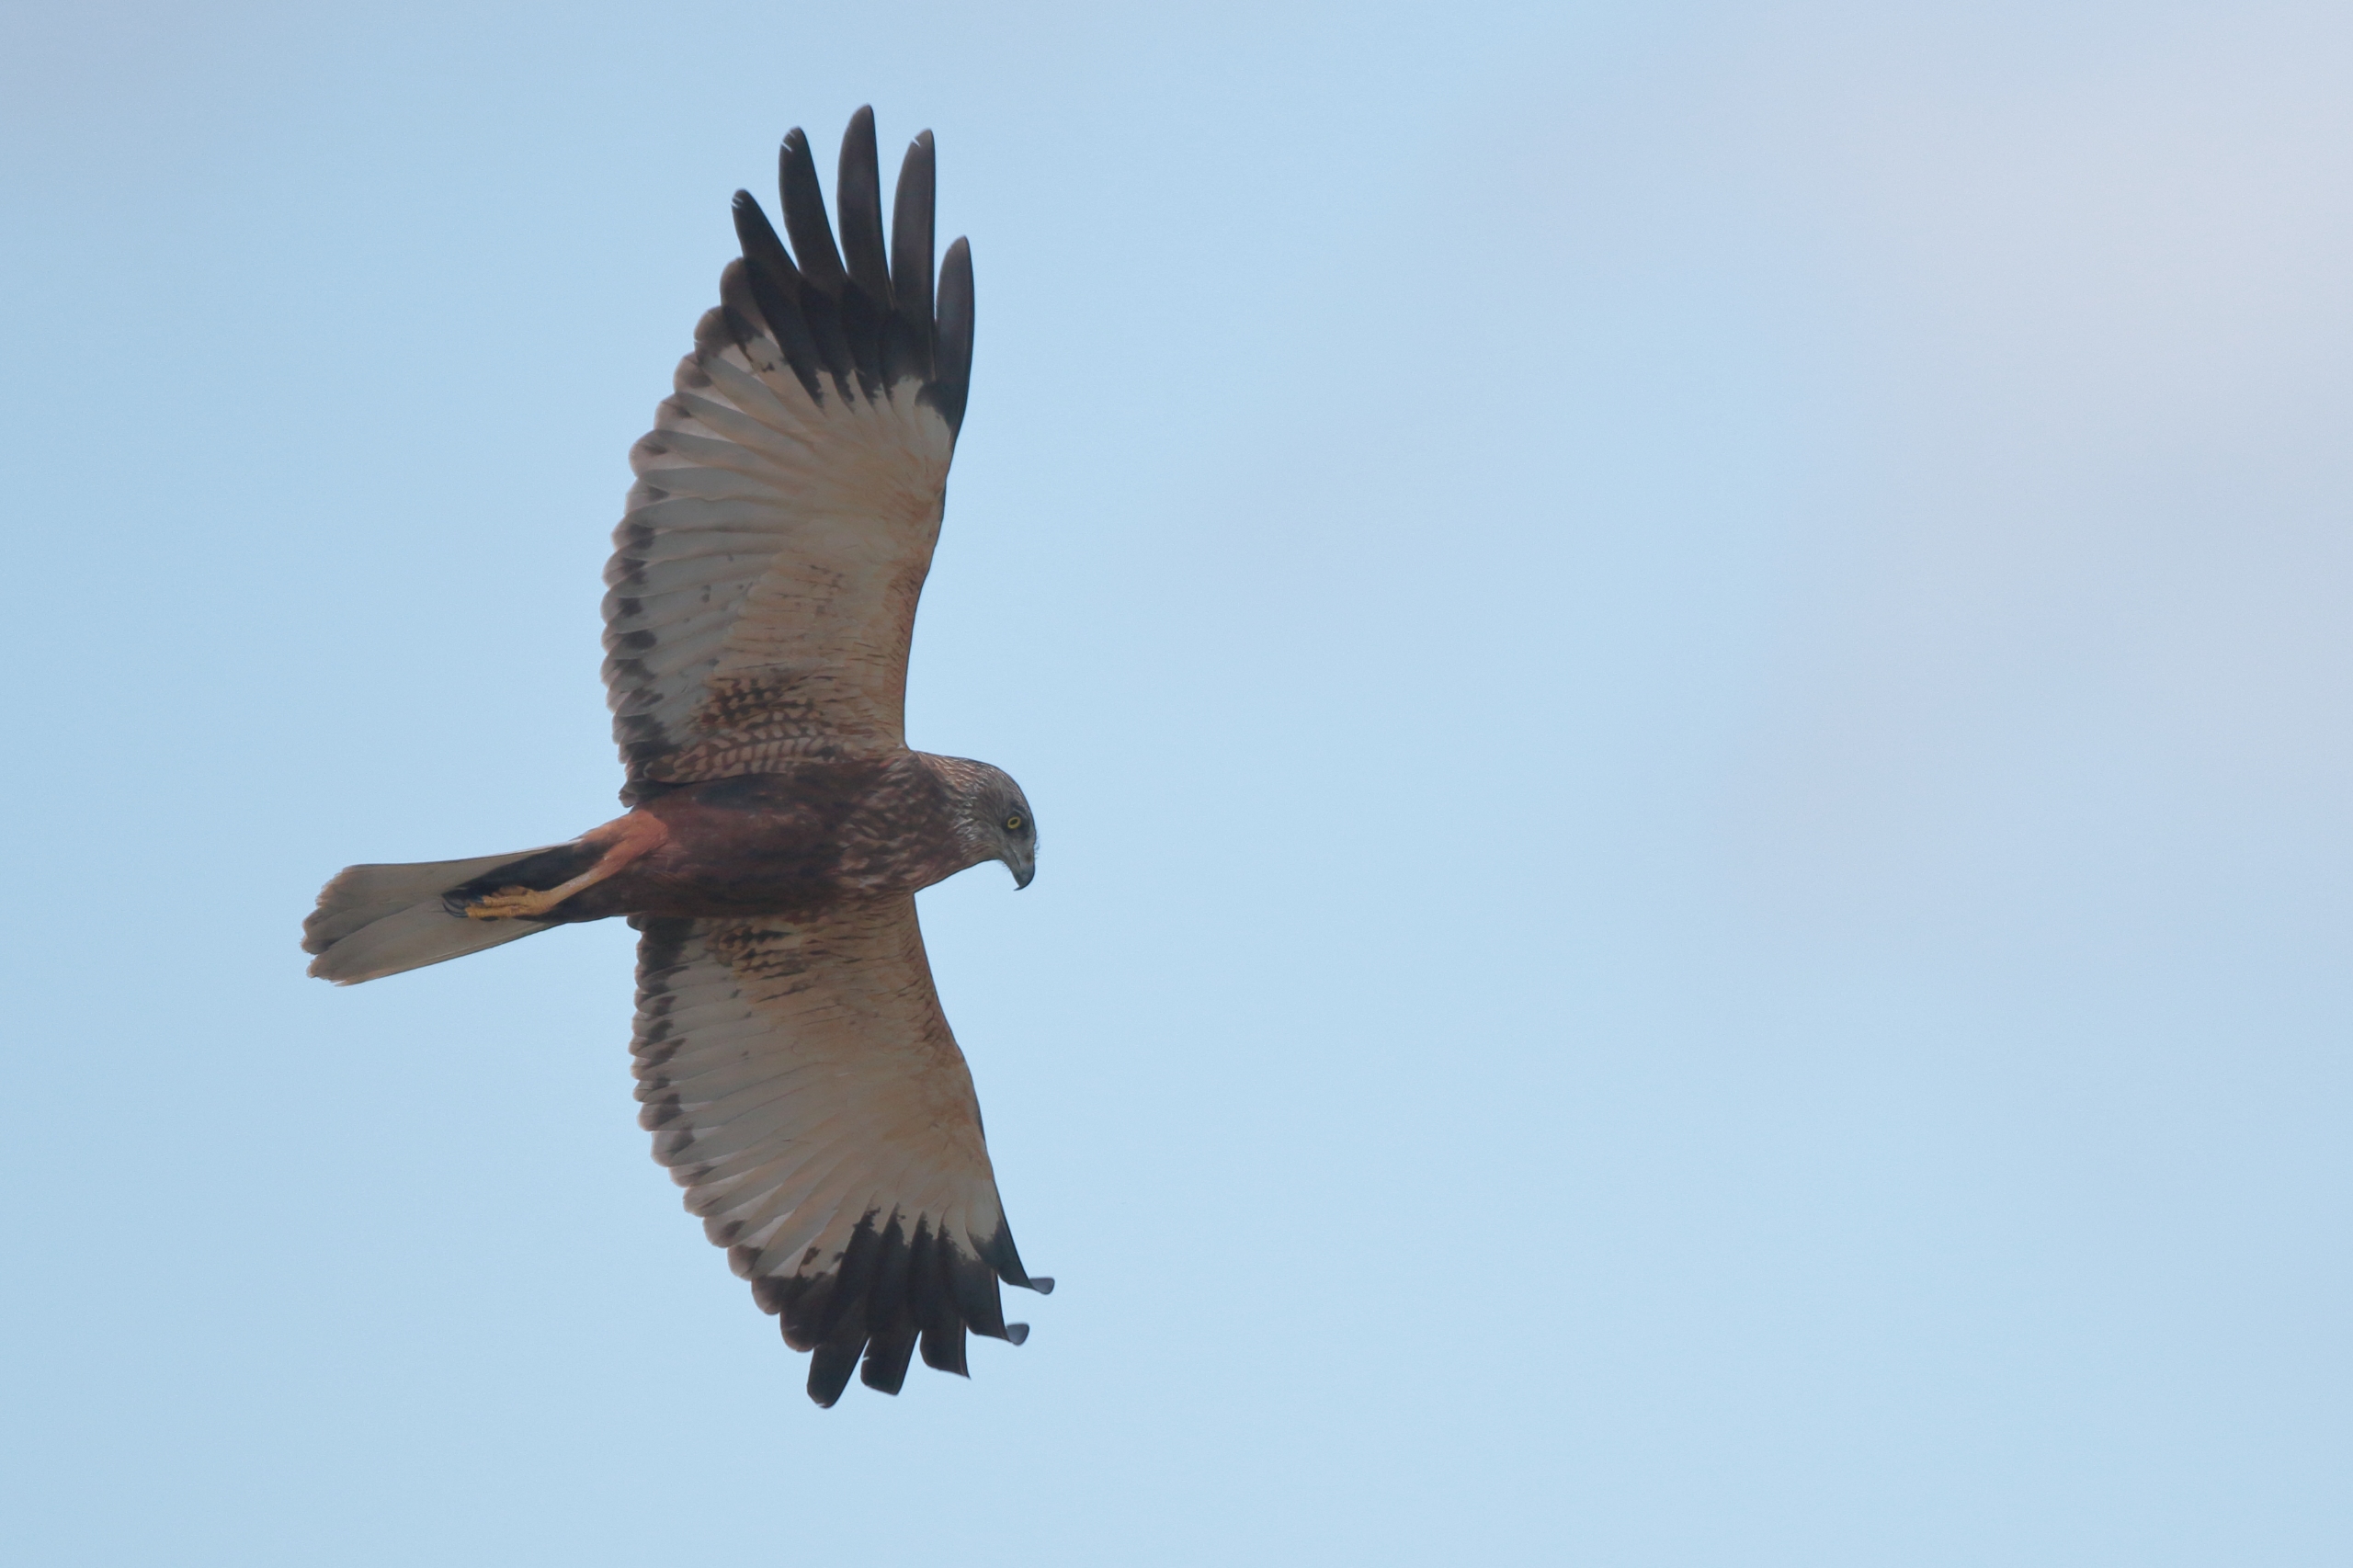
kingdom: Animalia
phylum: Chordata
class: Aves
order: Accipitriformes
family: Accipitridae
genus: Circus
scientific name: Circus aeruginosus
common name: Rørhøg
